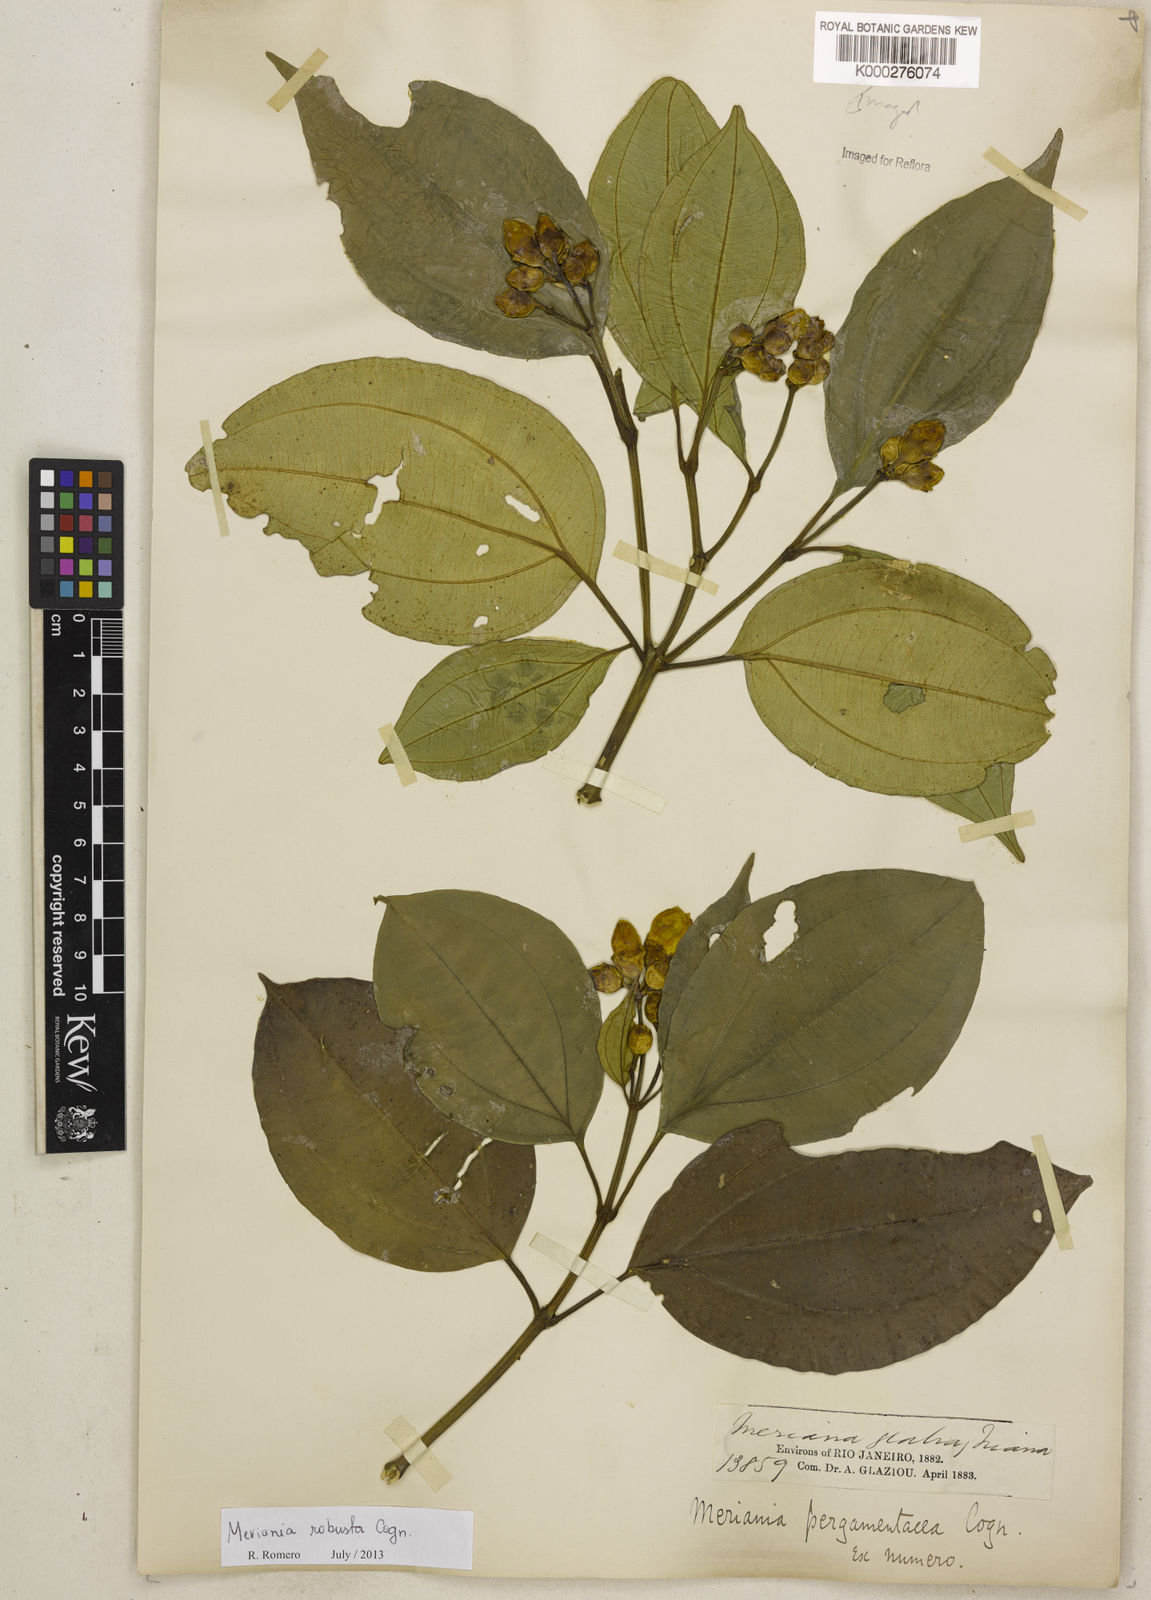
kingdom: Plantae
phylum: Tracheophyta
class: Magnoliopsida
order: Myrtales
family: Melastomataceae
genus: Meriania
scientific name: Meriania robusta
